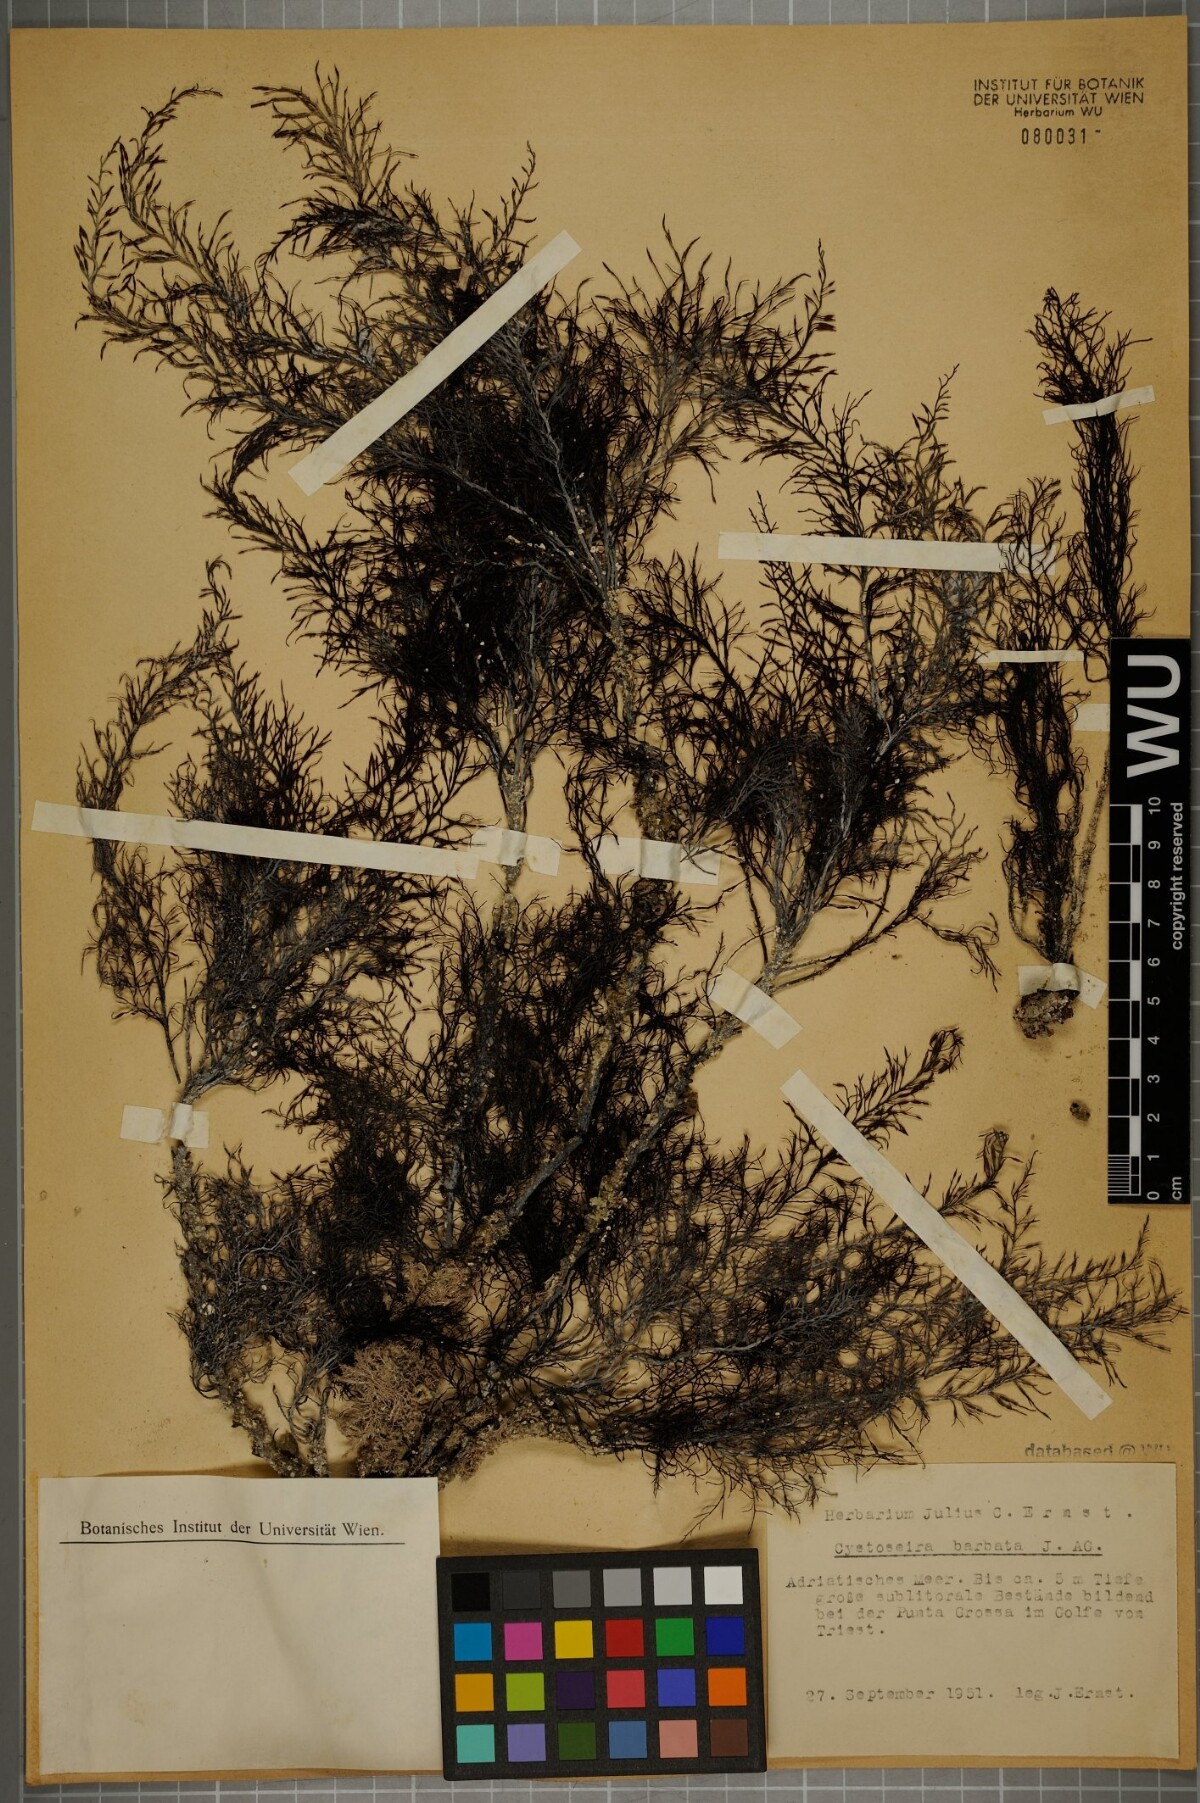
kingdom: Chromista
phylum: Ochrophyta
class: Phaeophyceae
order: Fucales
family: Sargassaceae
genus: Cystoseira
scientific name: Cystoseira Gongolaria barbata
